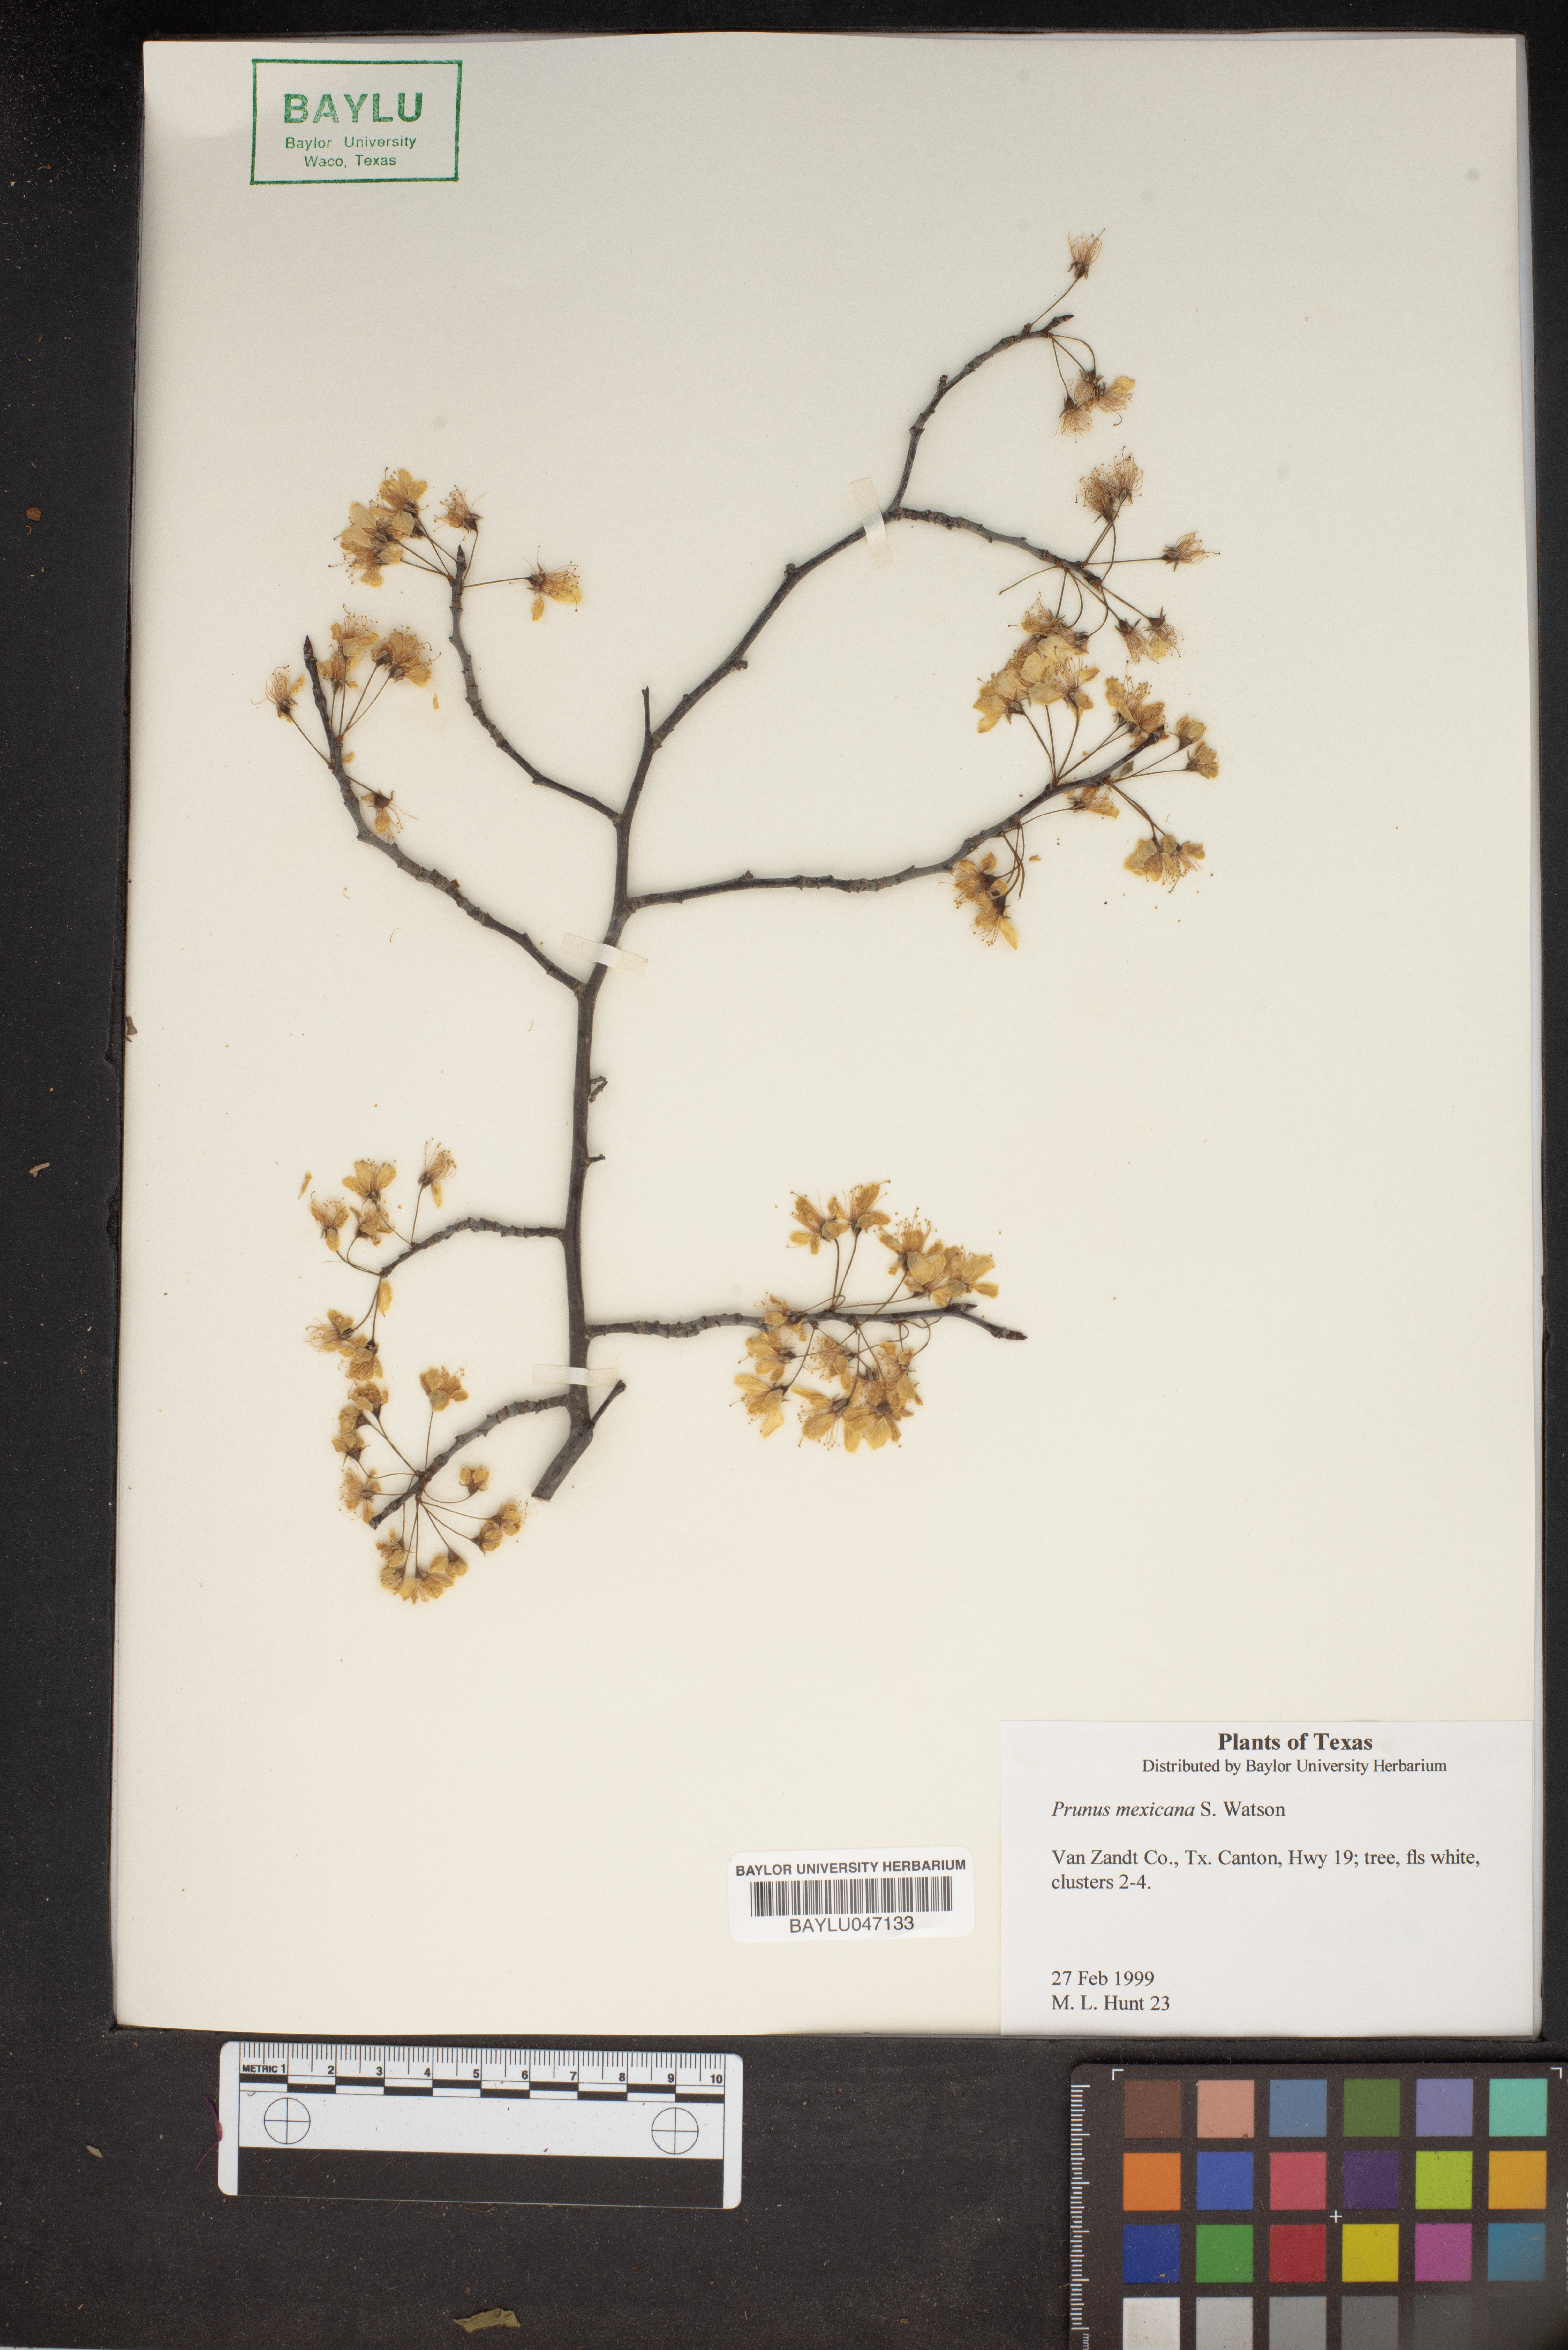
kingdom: Plantae
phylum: Tracheophyta
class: Magnoliopsida
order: Rosales
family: Rosaceae
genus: Prunus
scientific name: Prunus mexicana
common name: Mexican plum
